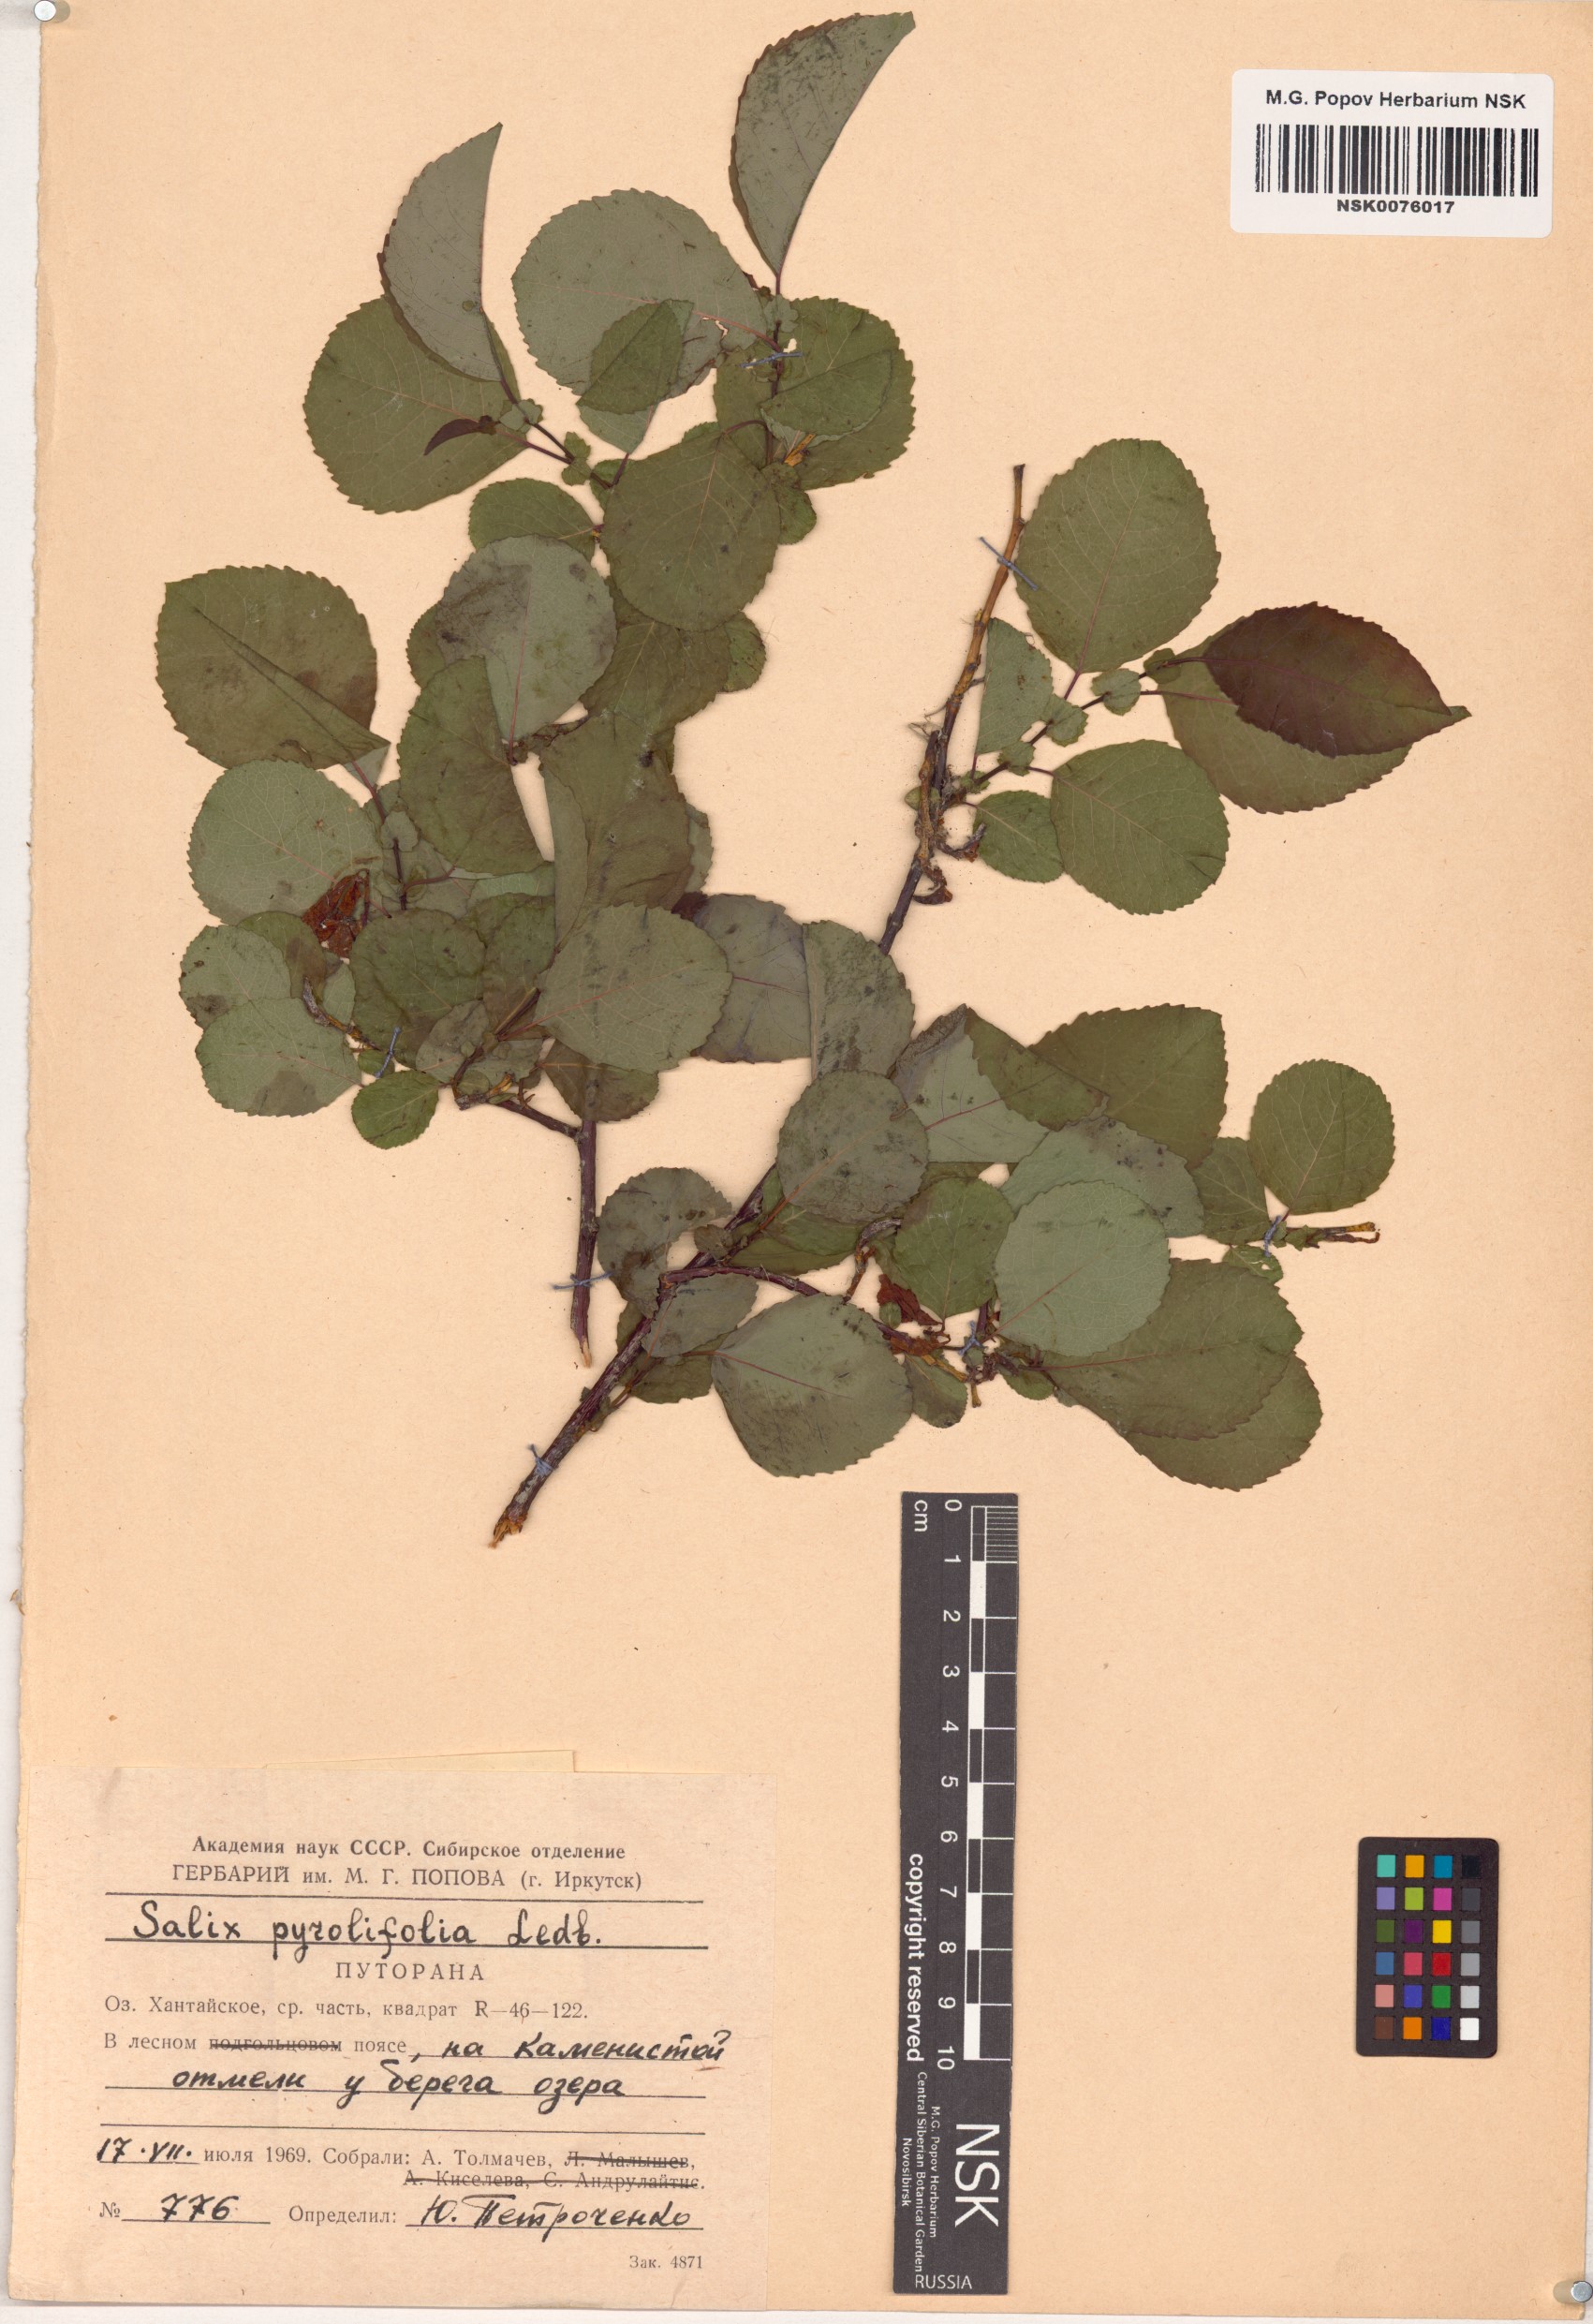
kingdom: Plantae
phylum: Tracheophyta
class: Magnoliopsida
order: Malpighiales
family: Salicaceae
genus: Salix
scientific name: Salix pyrolifolia
